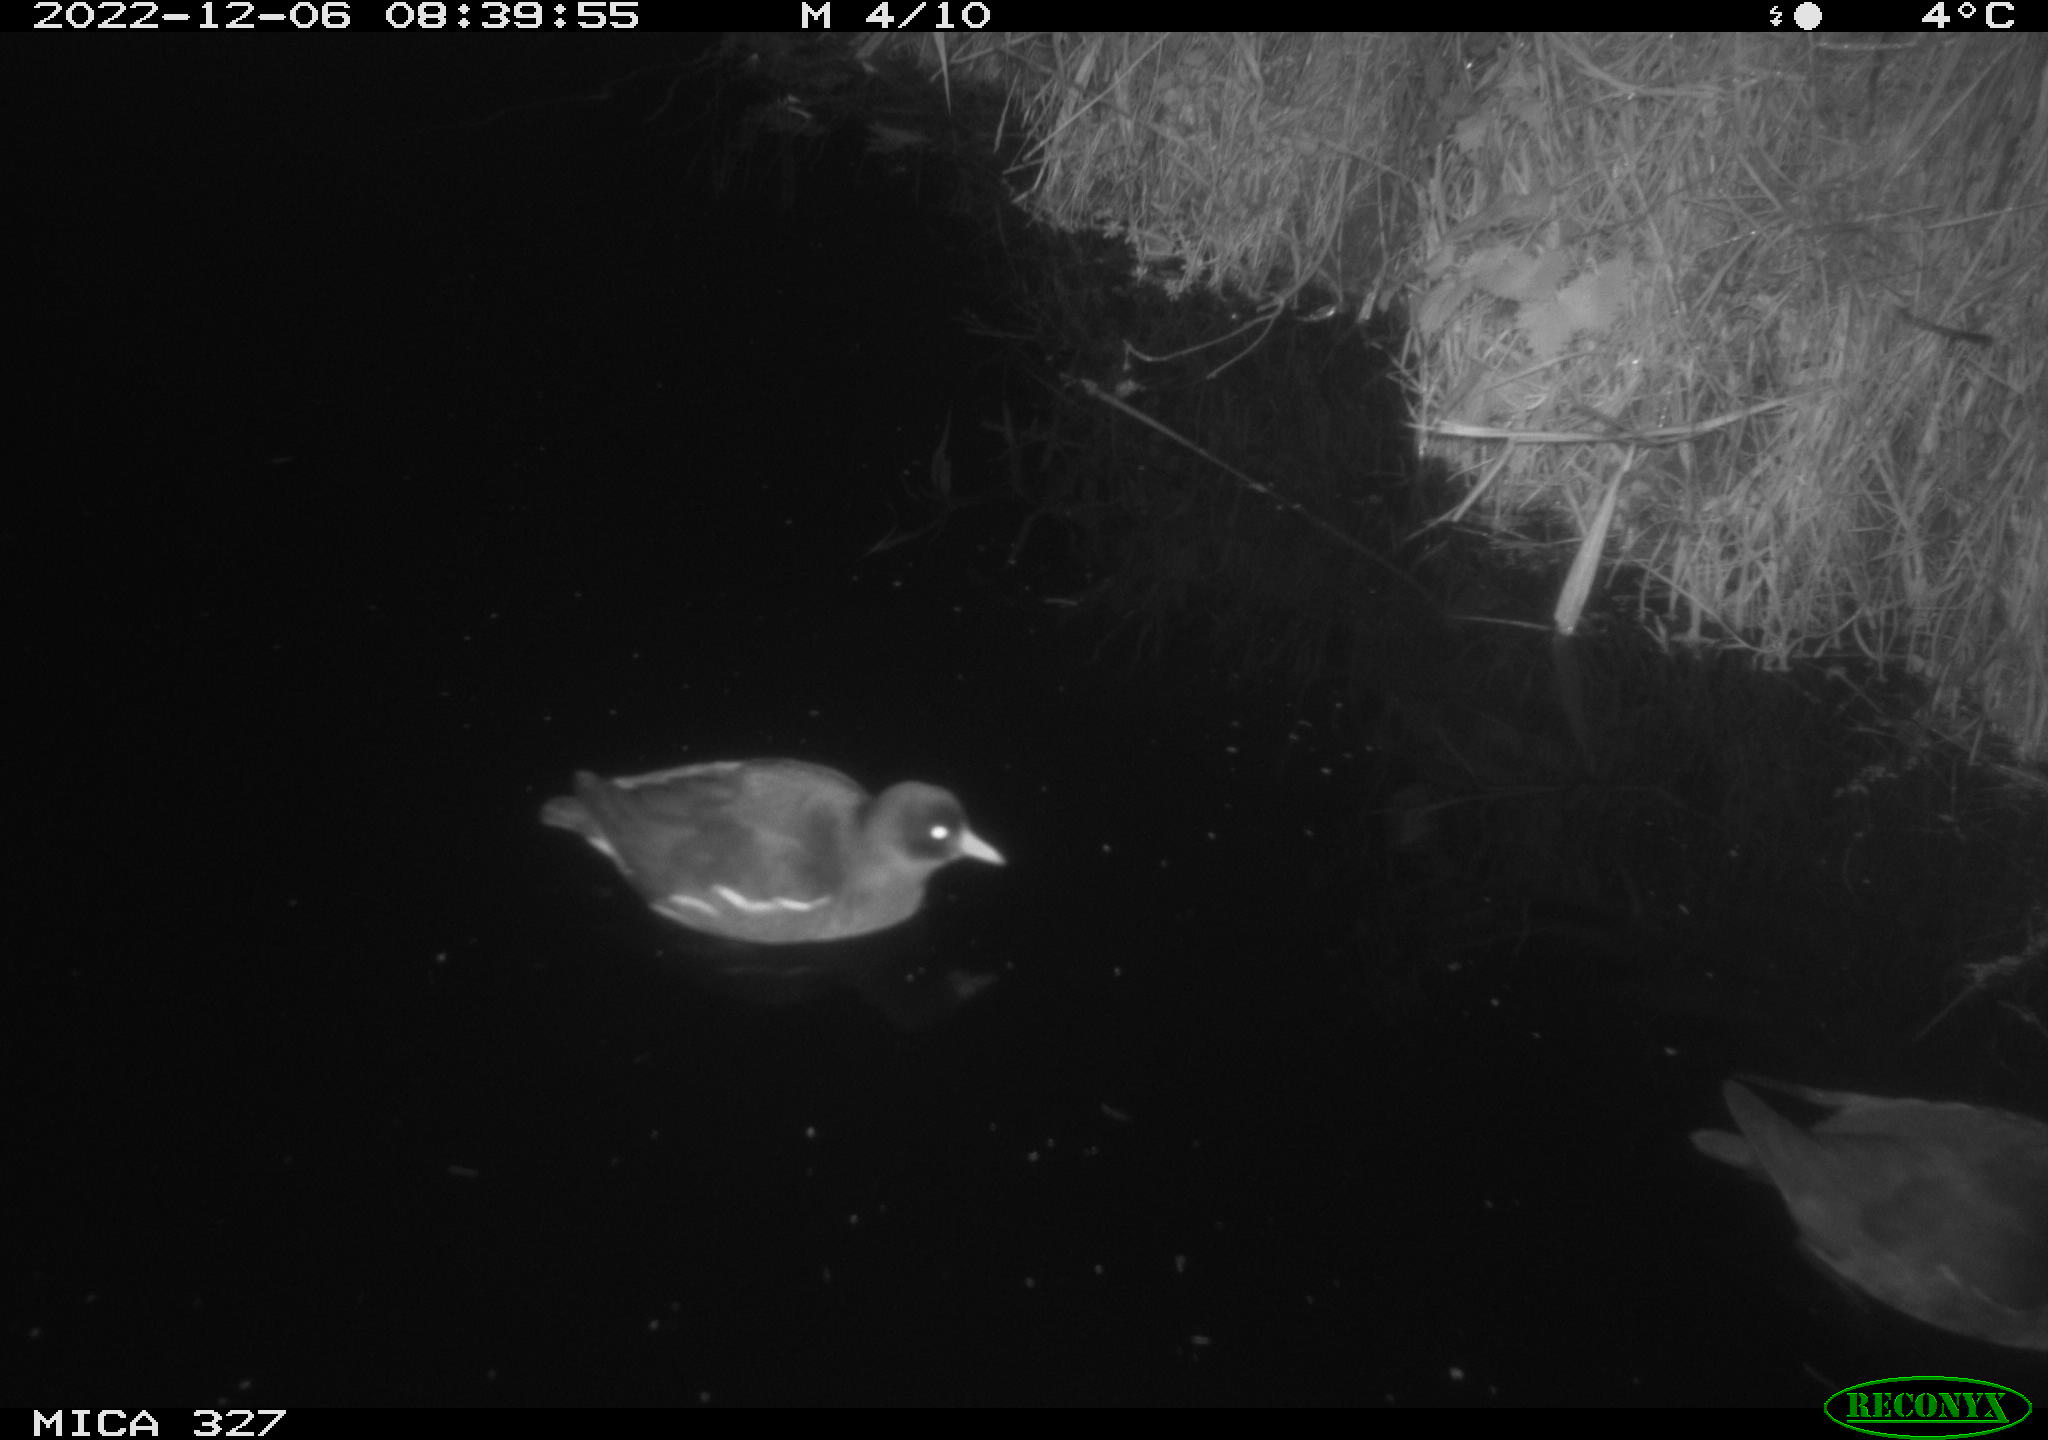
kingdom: Animalia
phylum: Chordata
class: Aves
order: Gruiformes
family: Rallidae
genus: Gallinula
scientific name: Gallinula chloropus
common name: Common moorhen
